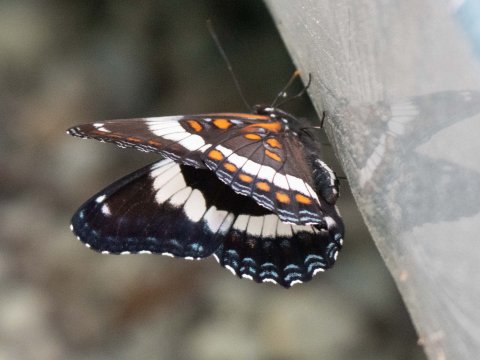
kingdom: Animalia
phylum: Arthropoda
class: Insecta
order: Lepidoptera
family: Nymphalidae
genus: Limenitis
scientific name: Limenitis arthemis
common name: Red-spotted Admiral
